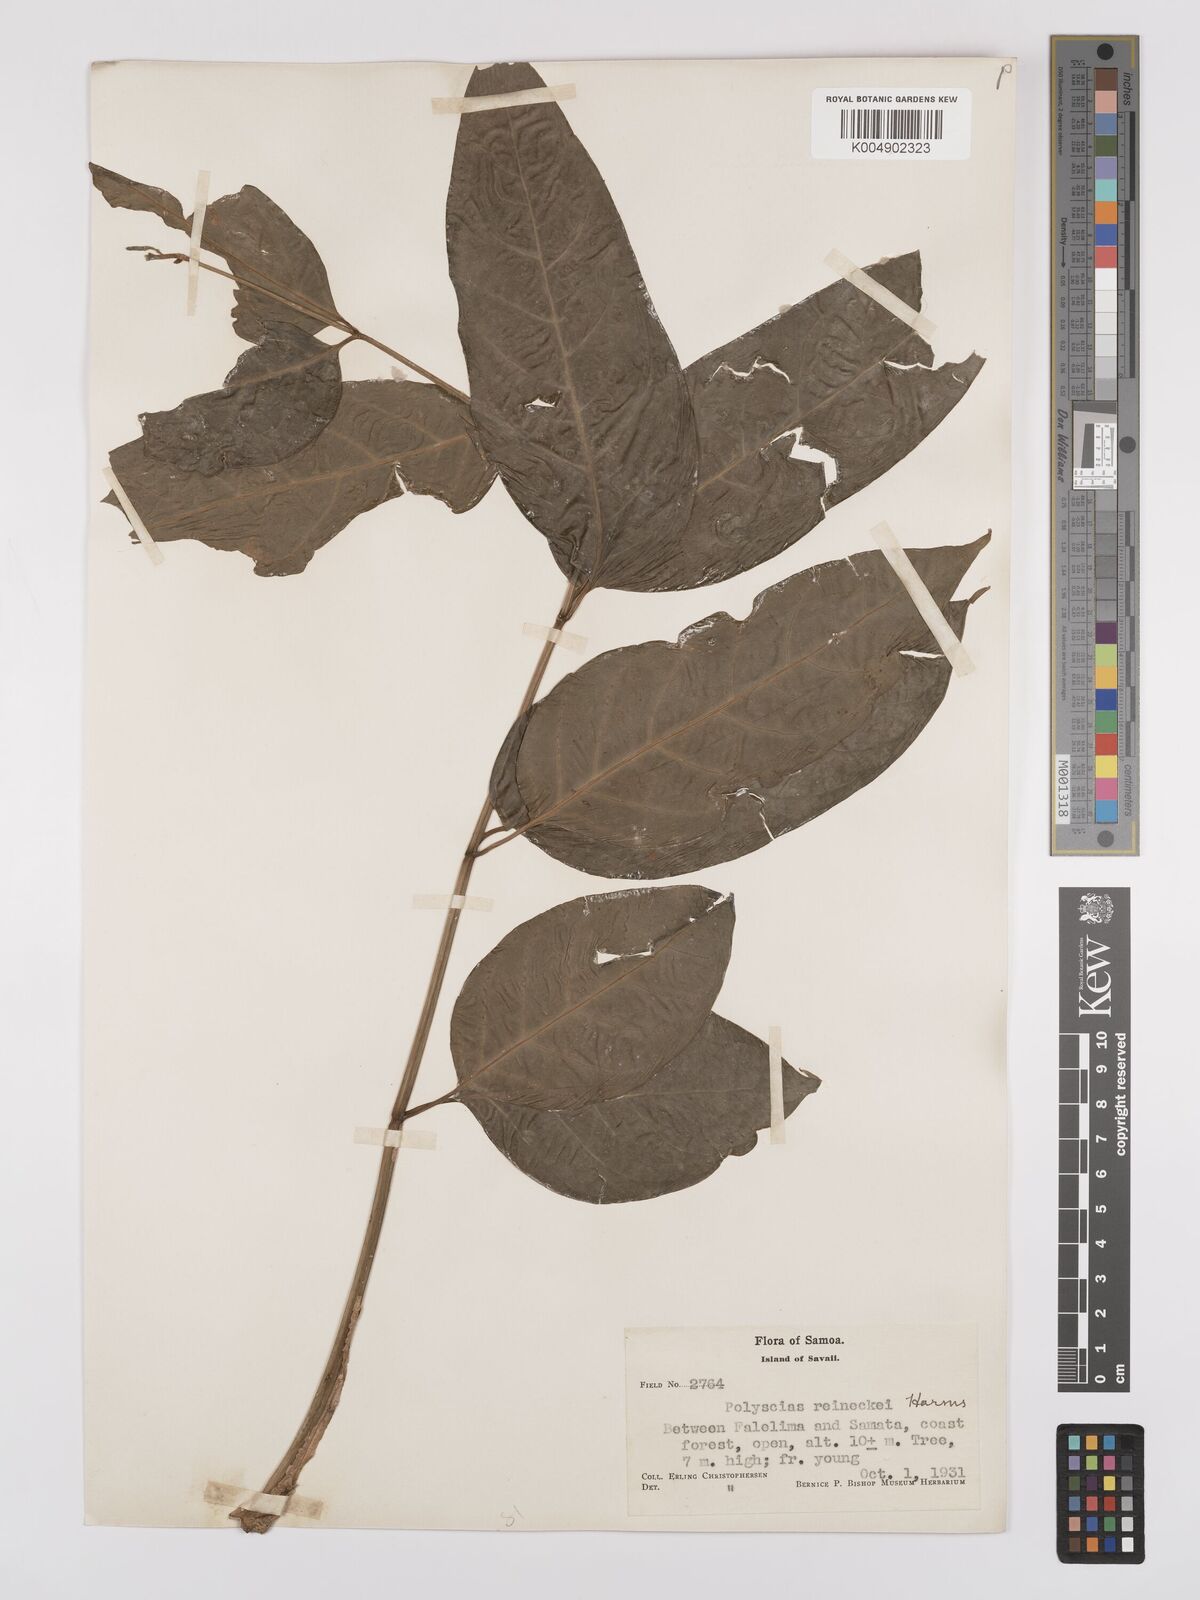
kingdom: Plantae
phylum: Tracheophyta
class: Magnoliopsida
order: Apiales
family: Araliaceae
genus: Polyscias
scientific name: Polyscias
